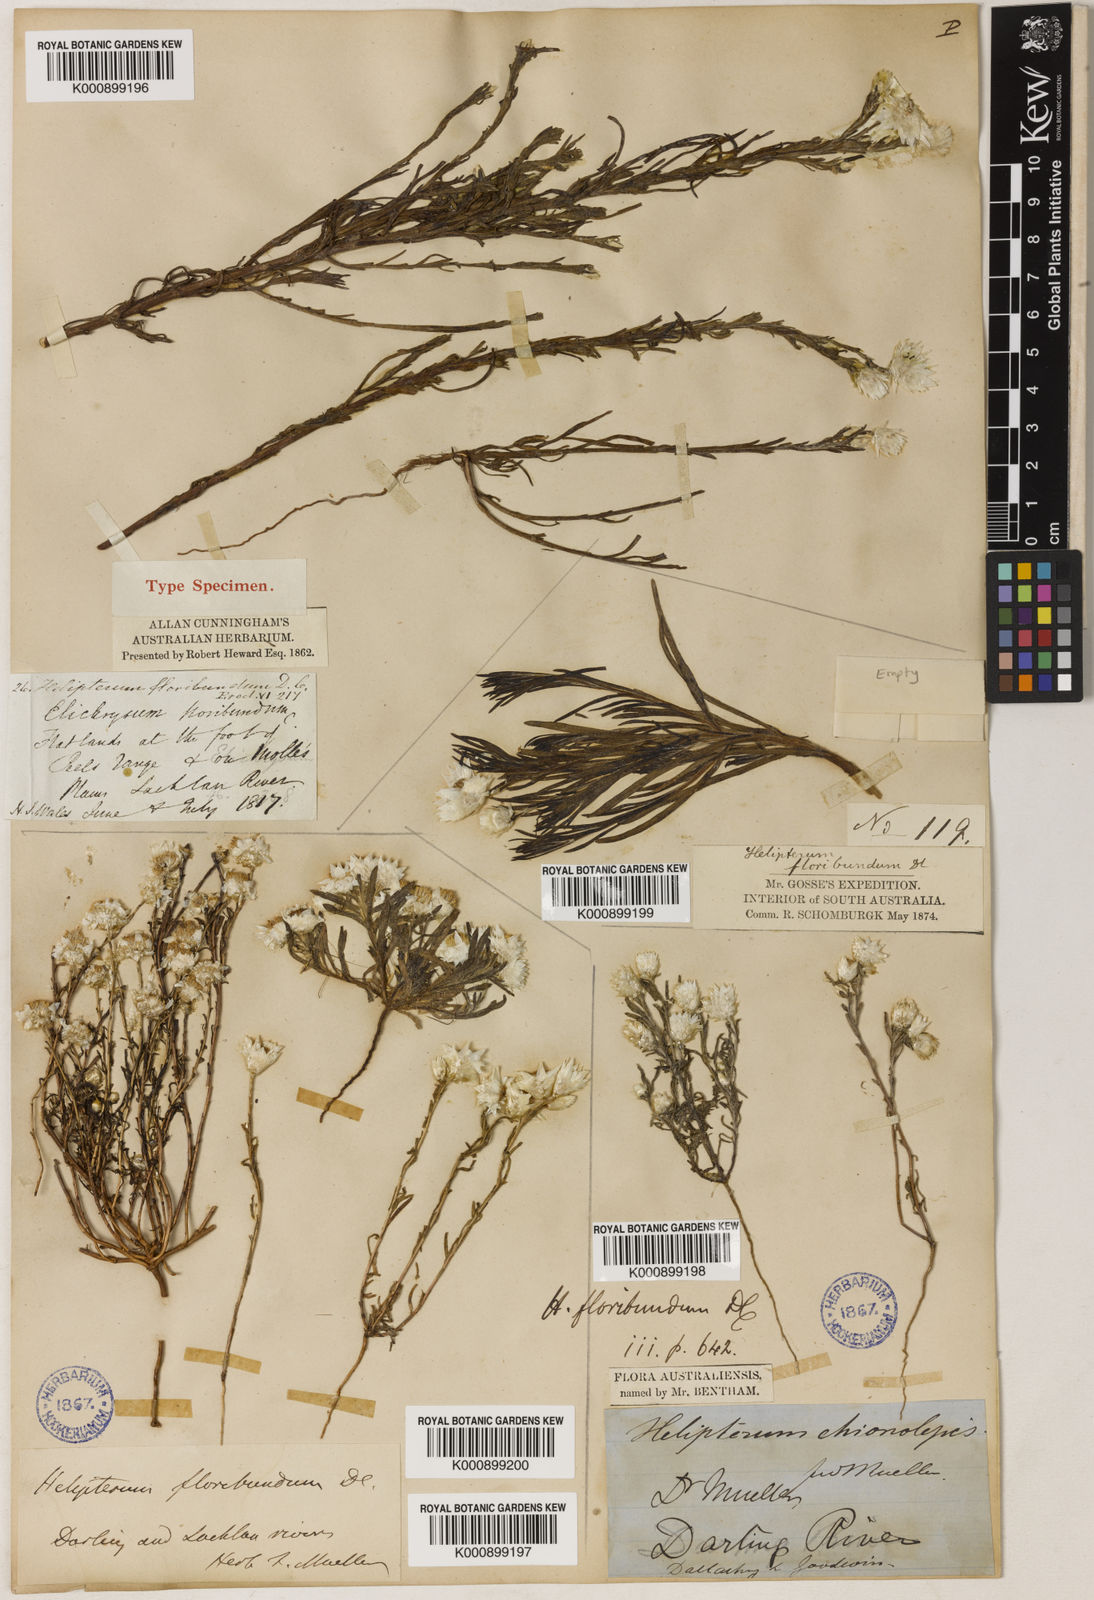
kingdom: Plantae
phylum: Tracheophyta
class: Magnoliopsida
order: Asterales
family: Asteraceae
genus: Rhodanthe
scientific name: Rhodanthe floribunda
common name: Flowery sunray
